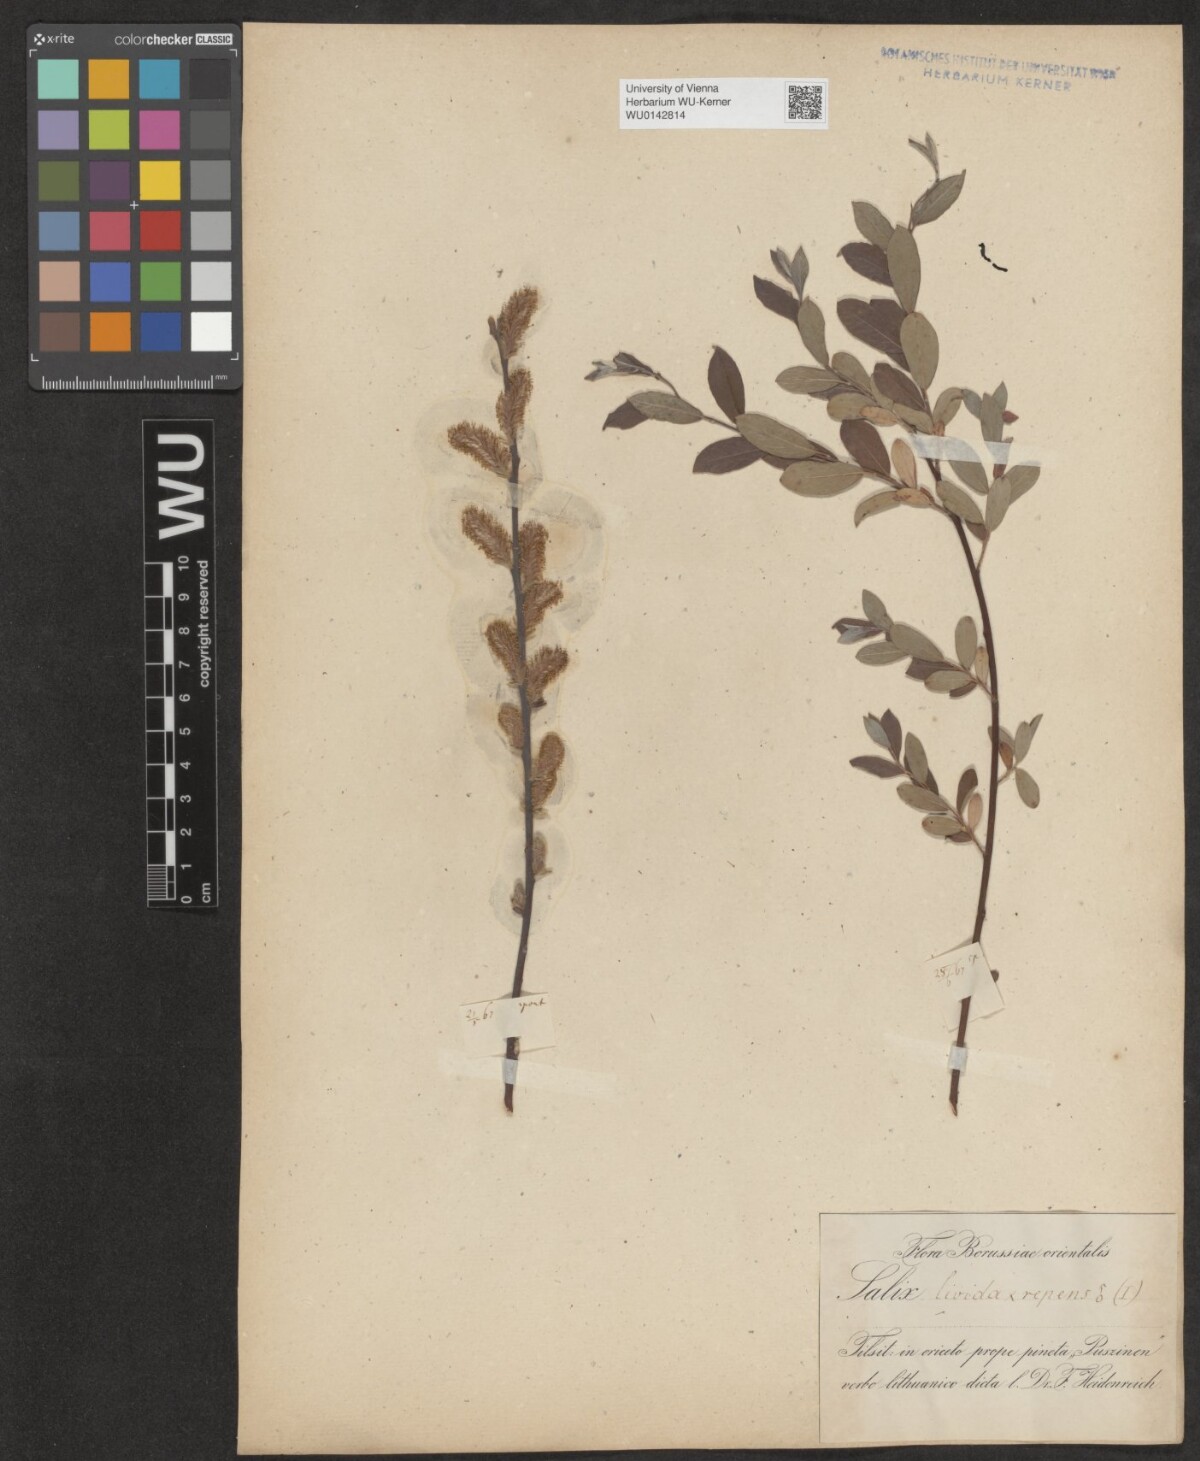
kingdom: Plantae
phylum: Tracheophyta
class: Magnoliopsida
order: Malpighiales
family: Salicaceae
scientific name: Salicaceae
